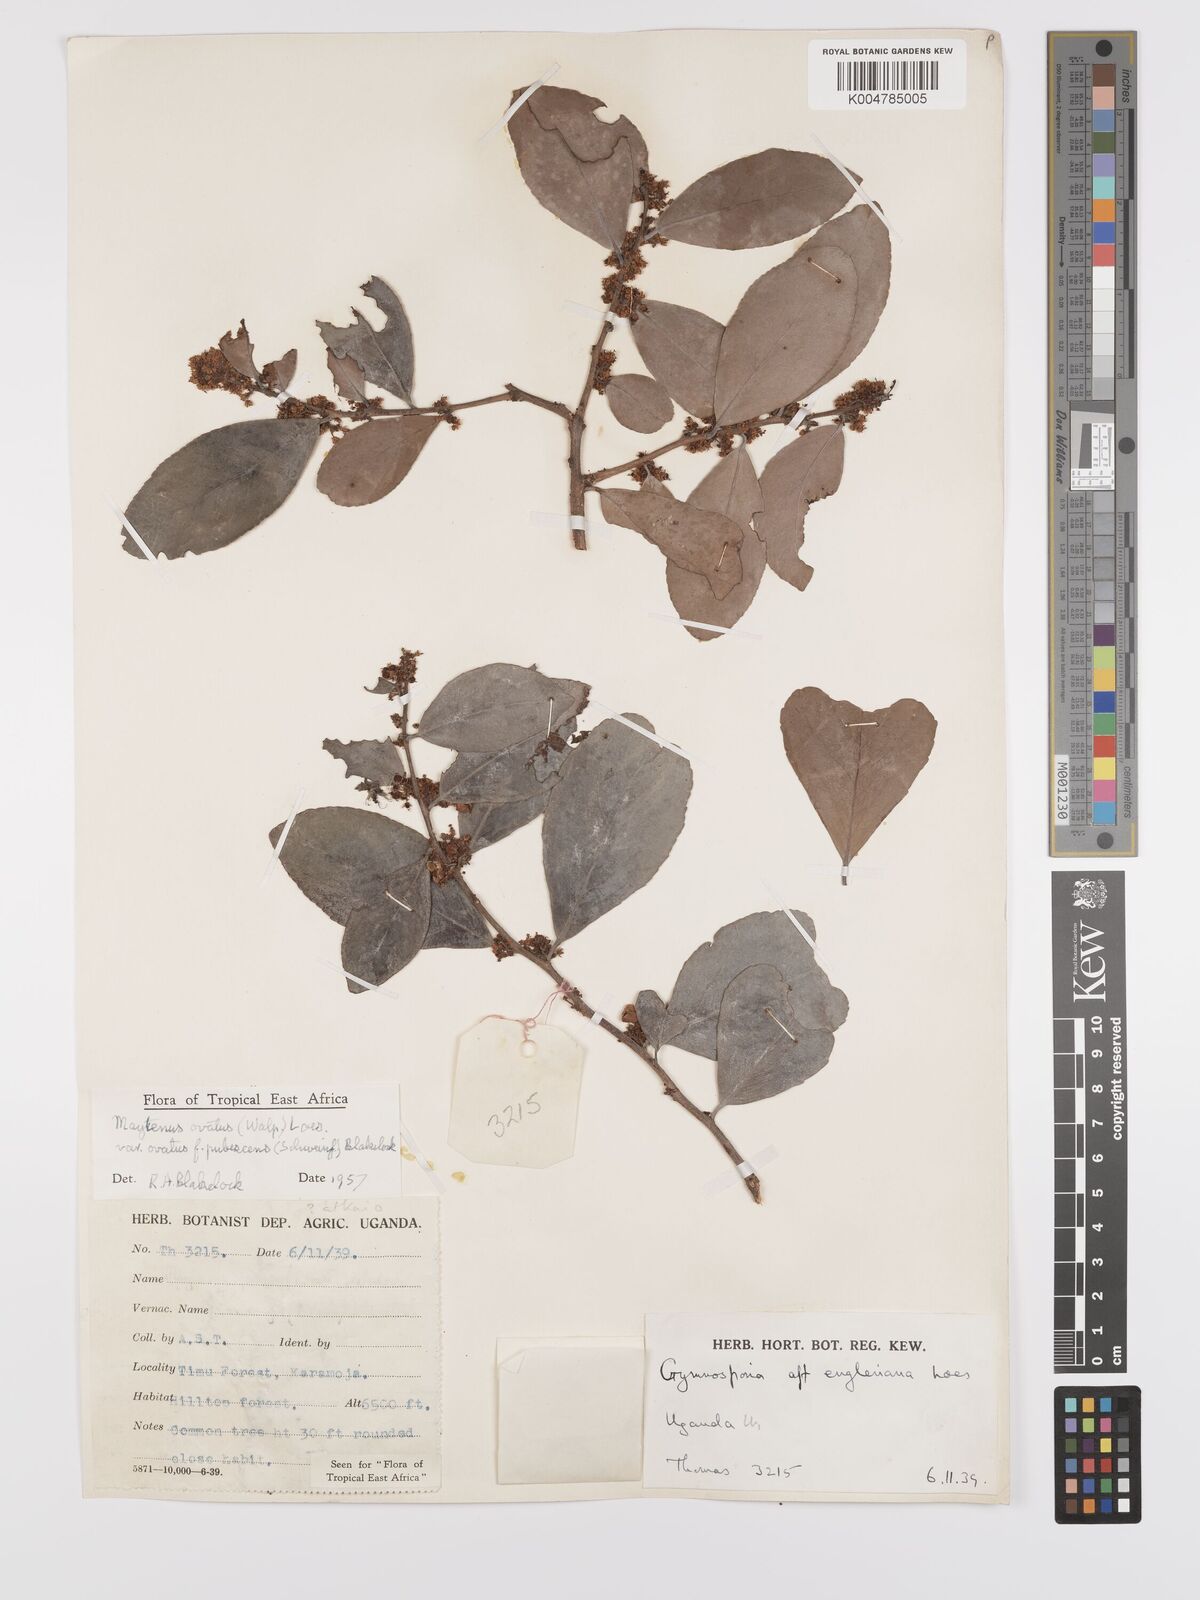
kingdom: Plantae
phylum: Tracheophyta
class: Magnoliopsida
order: Celastrales
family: Celastraceae
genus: Gymnosporia
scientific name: Gymnosporia buchananii
